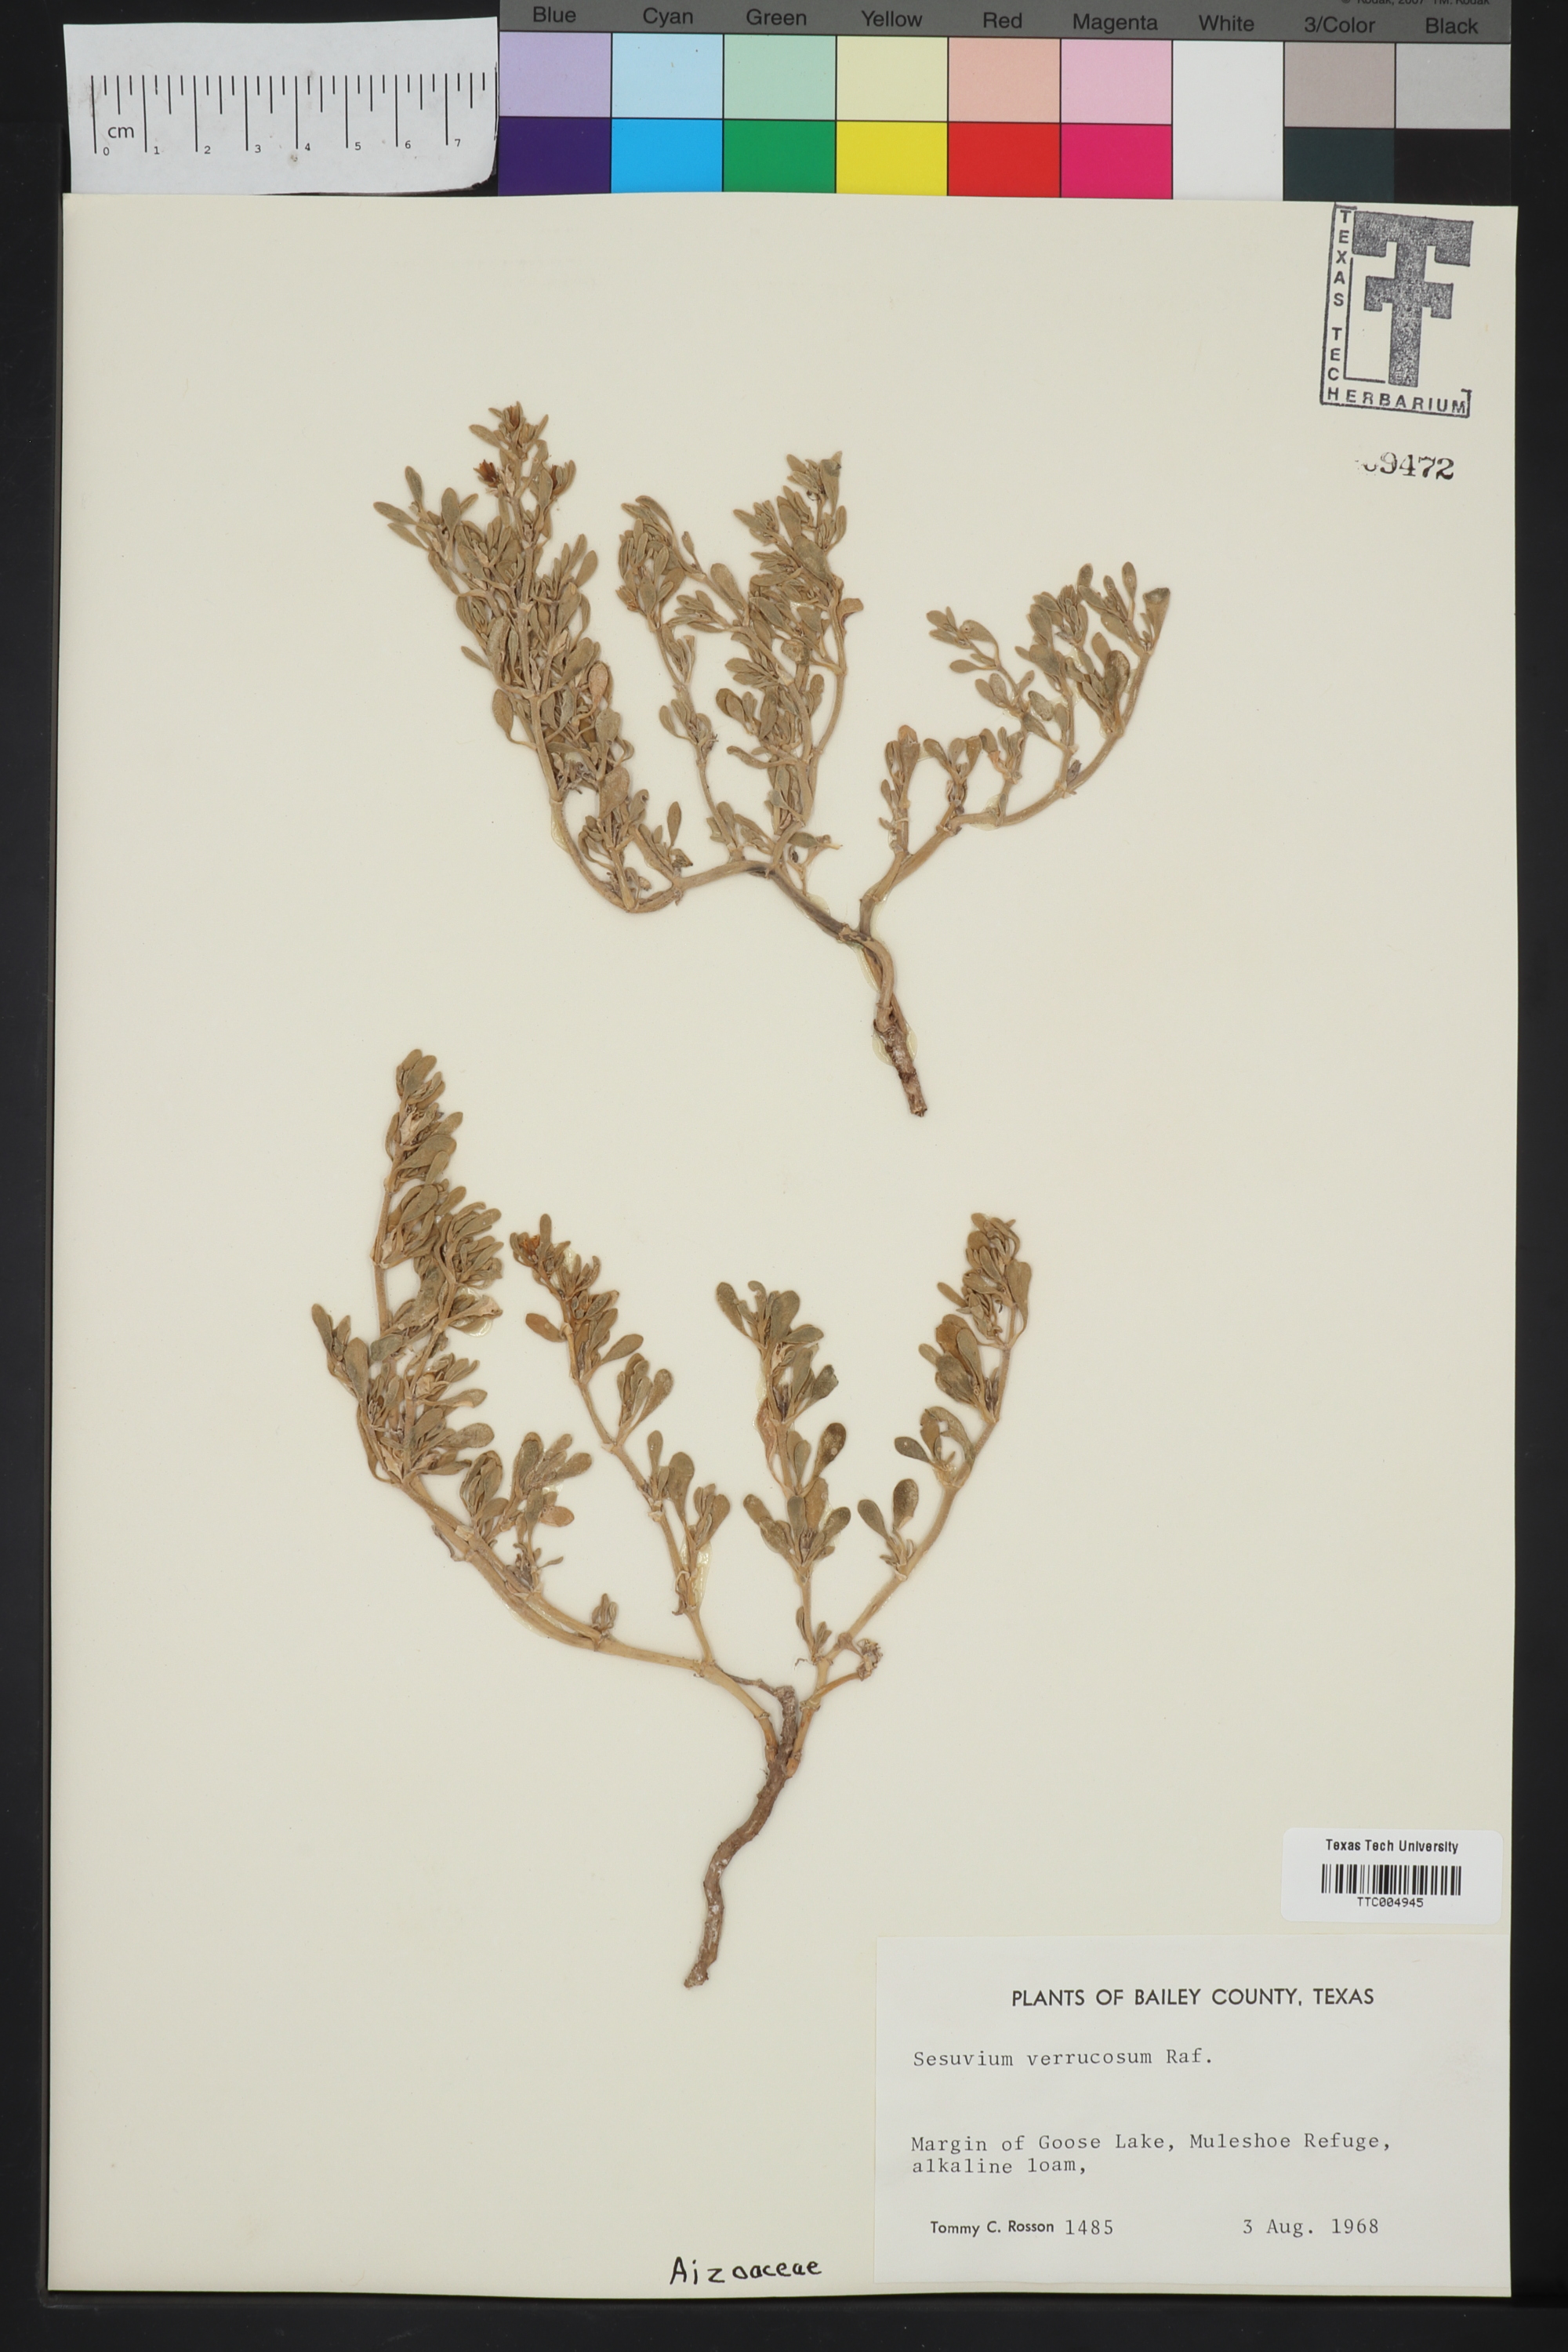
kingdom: Plantae
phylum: Tracheophyta
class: Magnoliopsida
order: Caryophyllales
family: Aizoaceae
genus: Sesuvium
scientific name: Sesuvium revolutifolium
